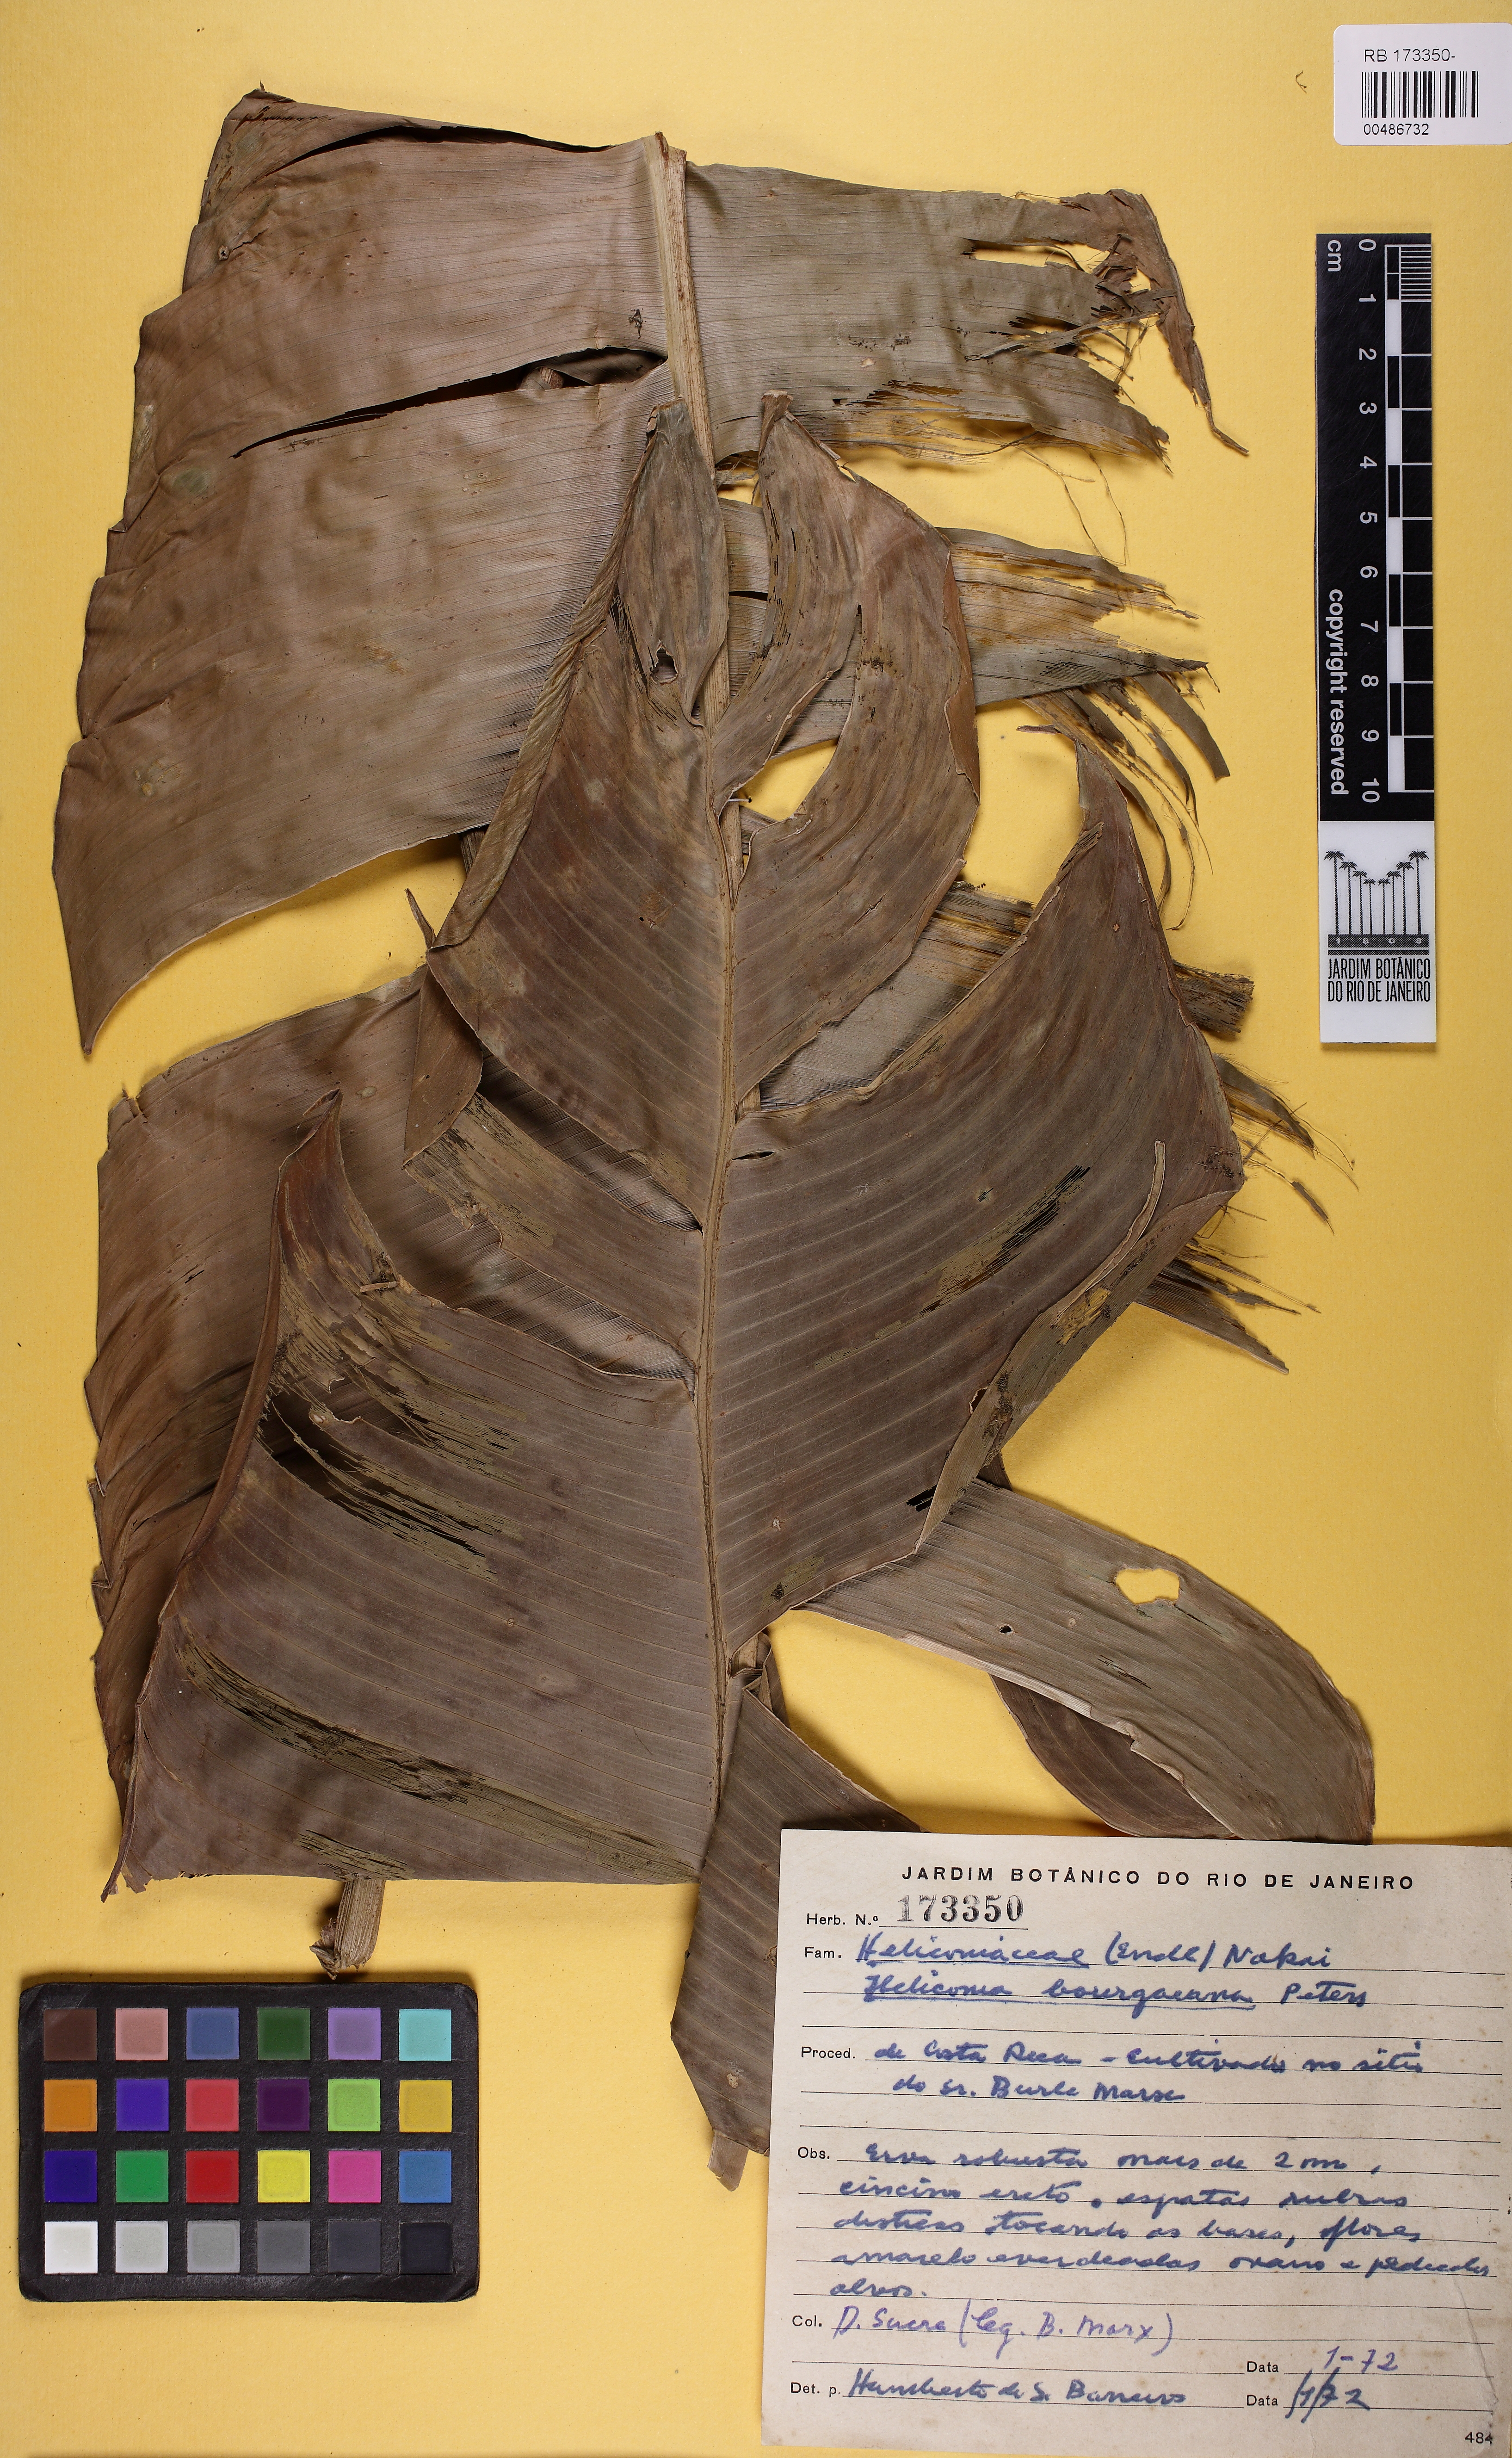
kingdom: Plantae
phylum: Tracheophyta
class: Liliopsida
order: Zingiberales
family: Heliconiaceae
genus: Heliconia
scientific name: Heliconia bourgaeana
